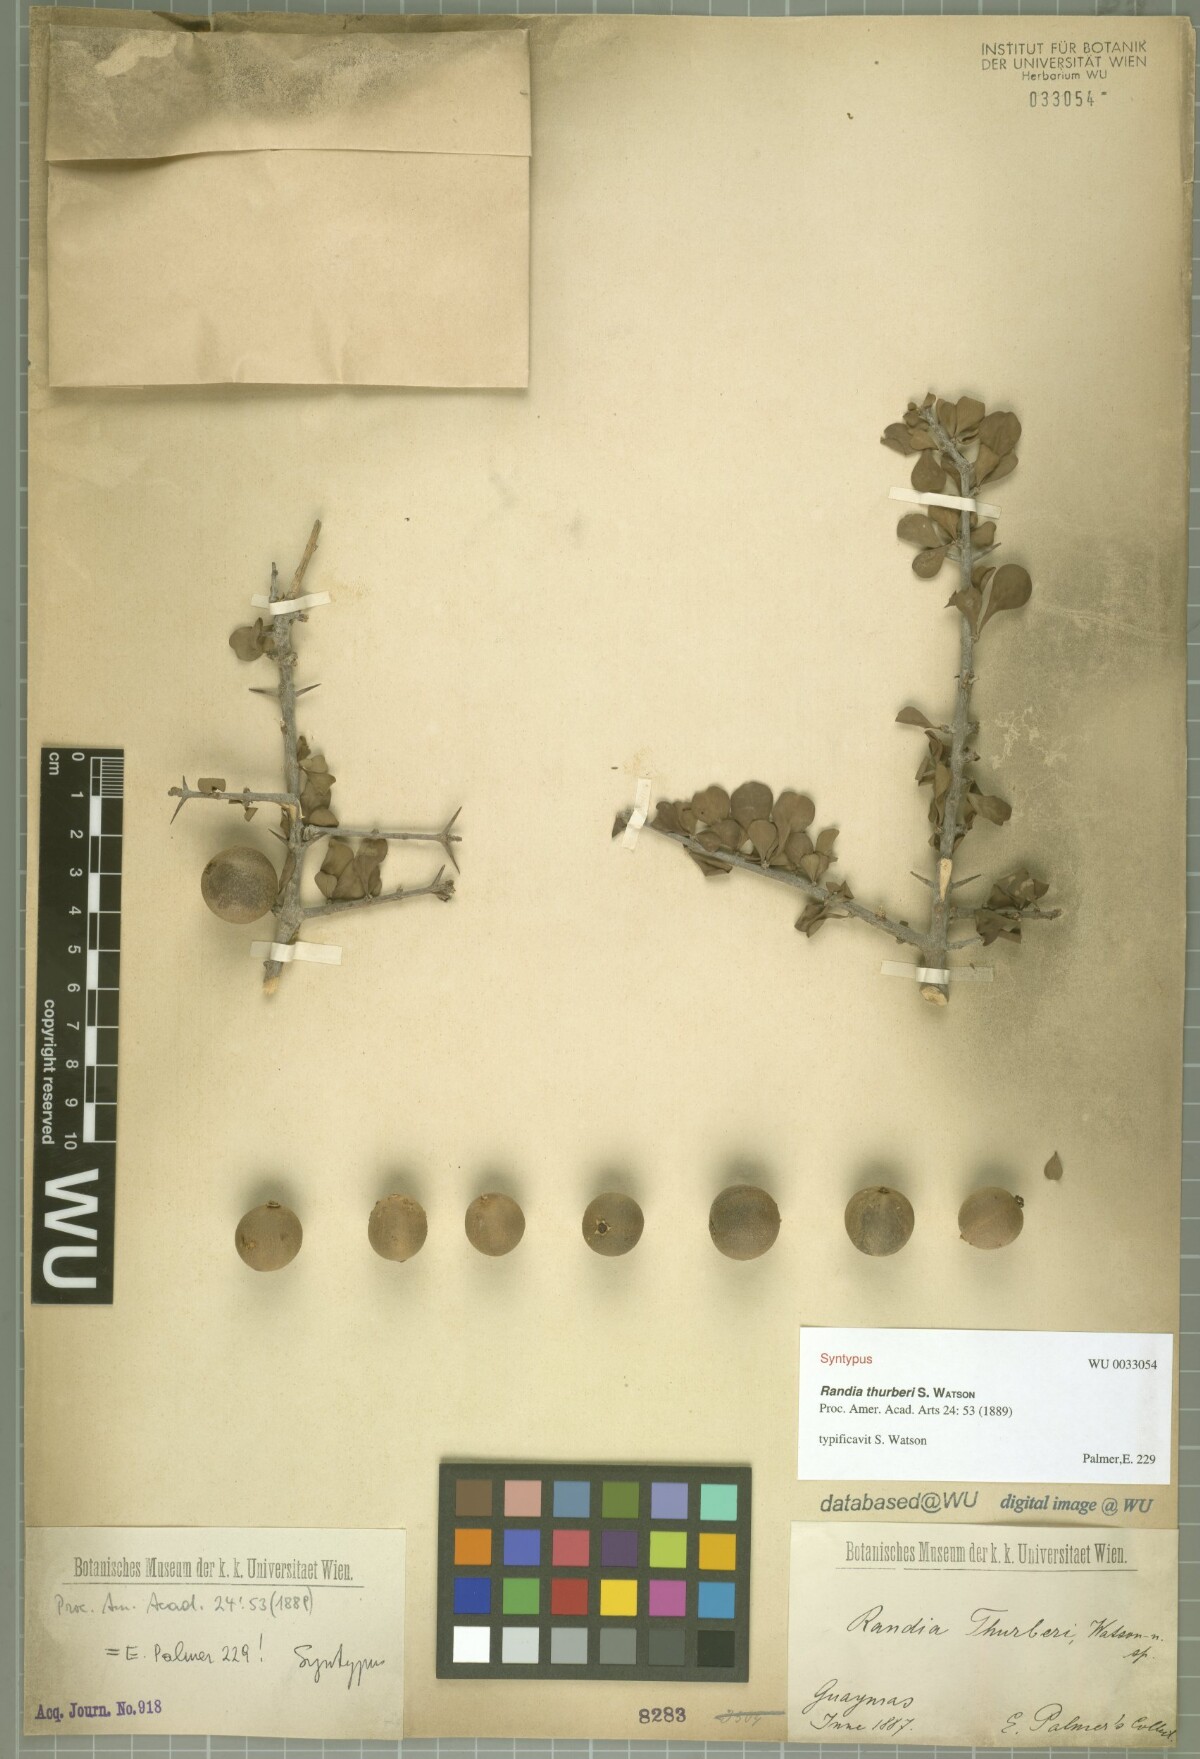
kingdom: Plantae
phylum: Tracheophyta
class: Magnoliopsida
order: Gentianales
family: Rubiaceae
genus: Randia
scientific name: Randia thurberi
